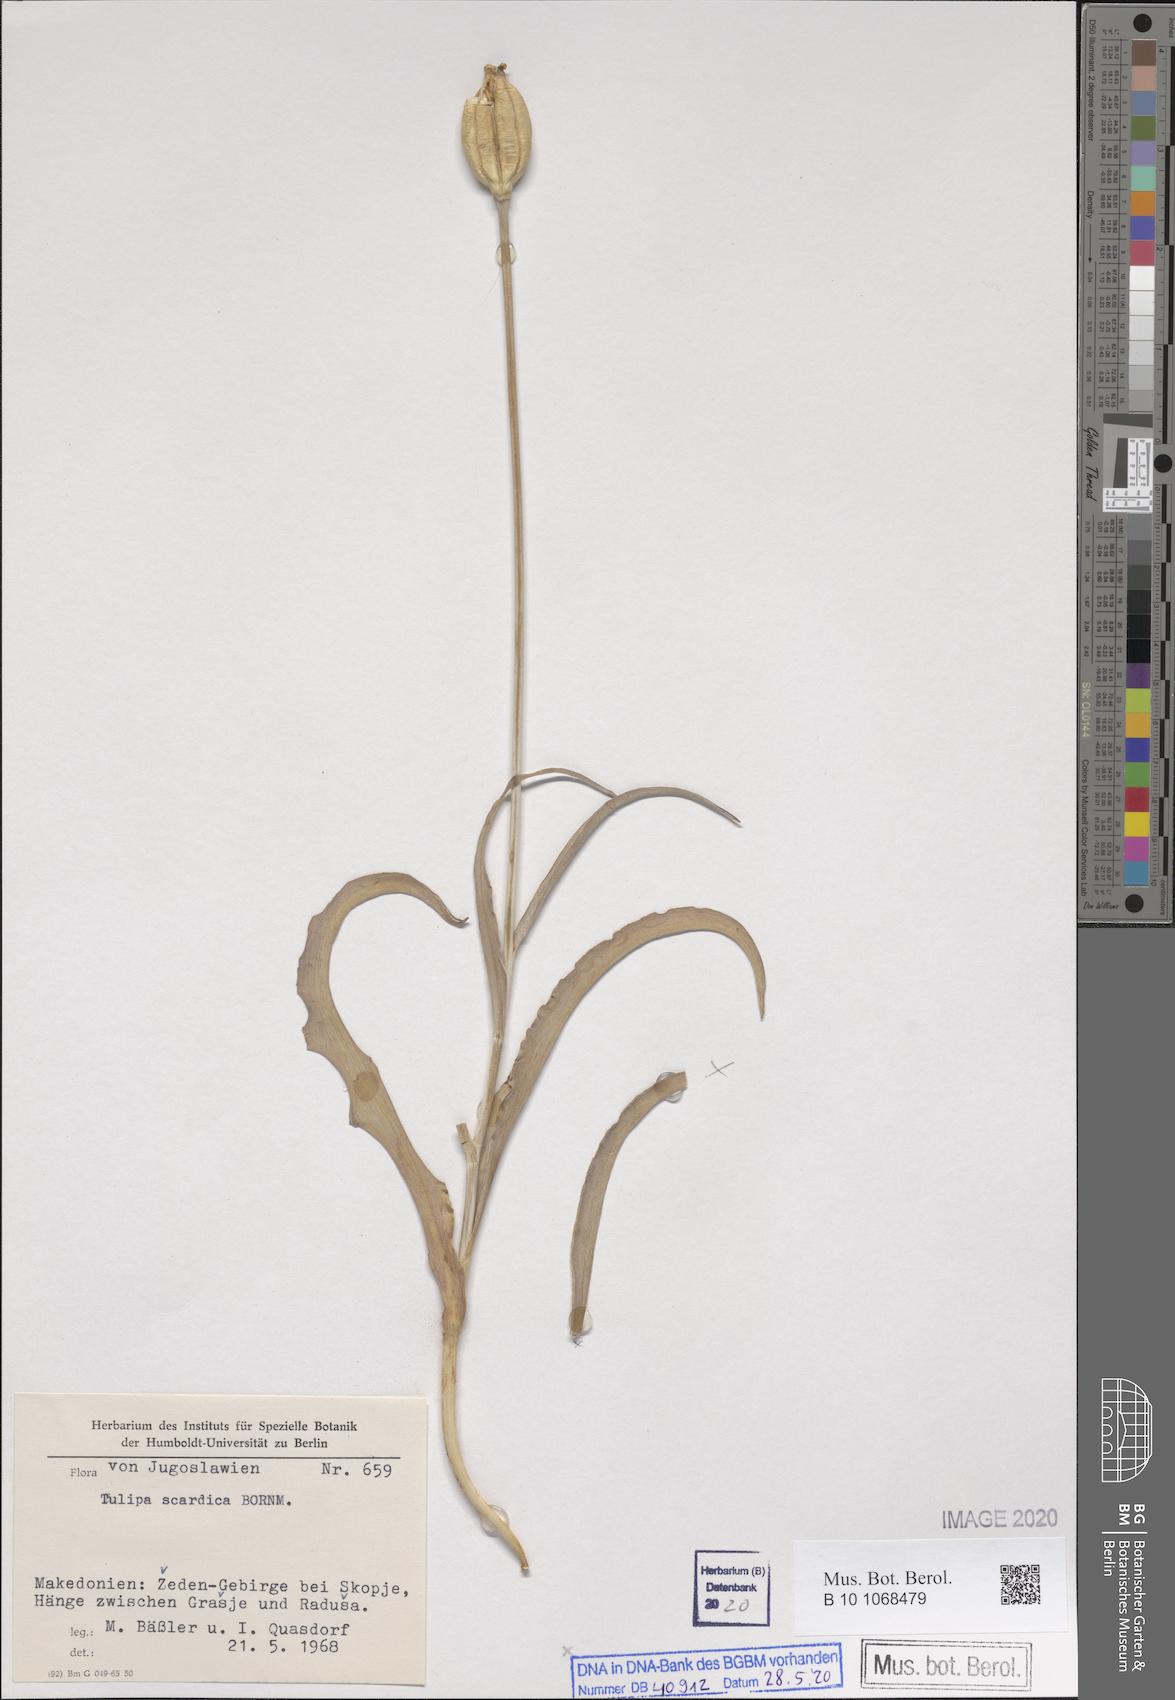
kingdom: Plantae
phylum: Tracheophyta
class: Liliopsida
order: Liliales
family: Liliaceae
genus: Tulipa
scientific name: Tulipa scardica
